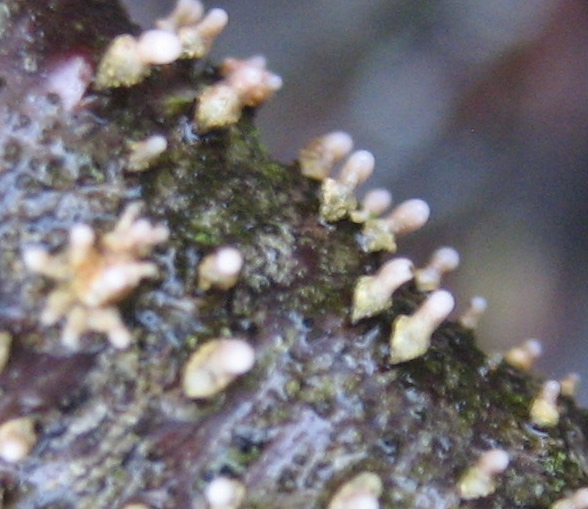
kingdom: Fungi
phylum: Ascomycota
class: Leotiomycetes
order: Helotiales
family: Dermateaceae
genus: Dermea
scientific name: Dermea cerasi
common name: kirsebær-klyngeskive
